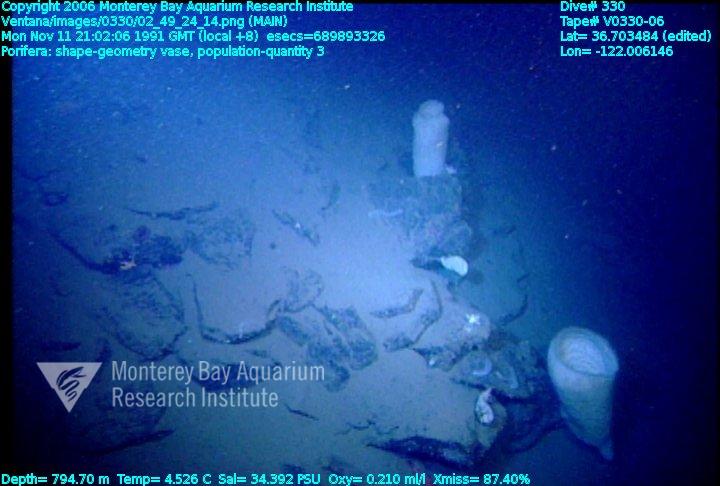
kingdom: Animalia
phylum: Porifera
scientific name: Porifera
